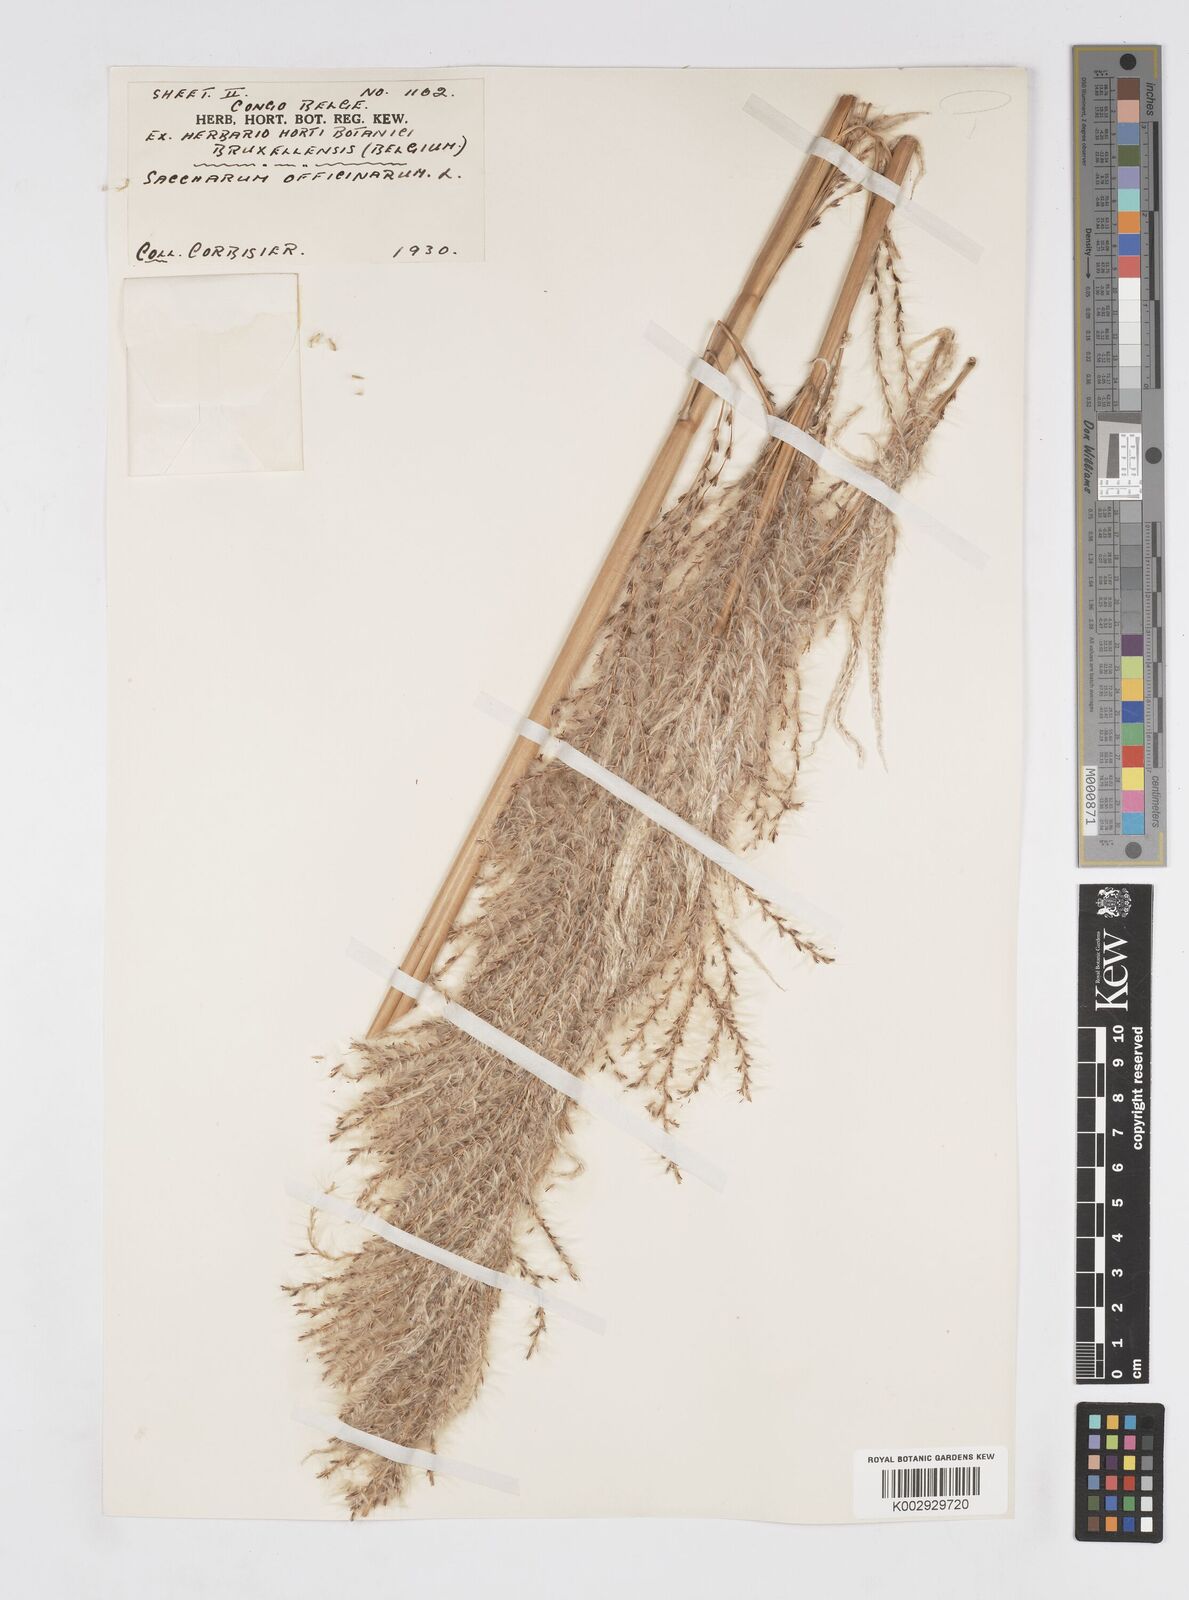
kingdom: Plantae
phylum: Tracheophyta
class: Liliopsida
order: Poales
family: Poaceae
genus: Saccharum
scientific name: Saccharum officinarum
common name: Sugarcane
